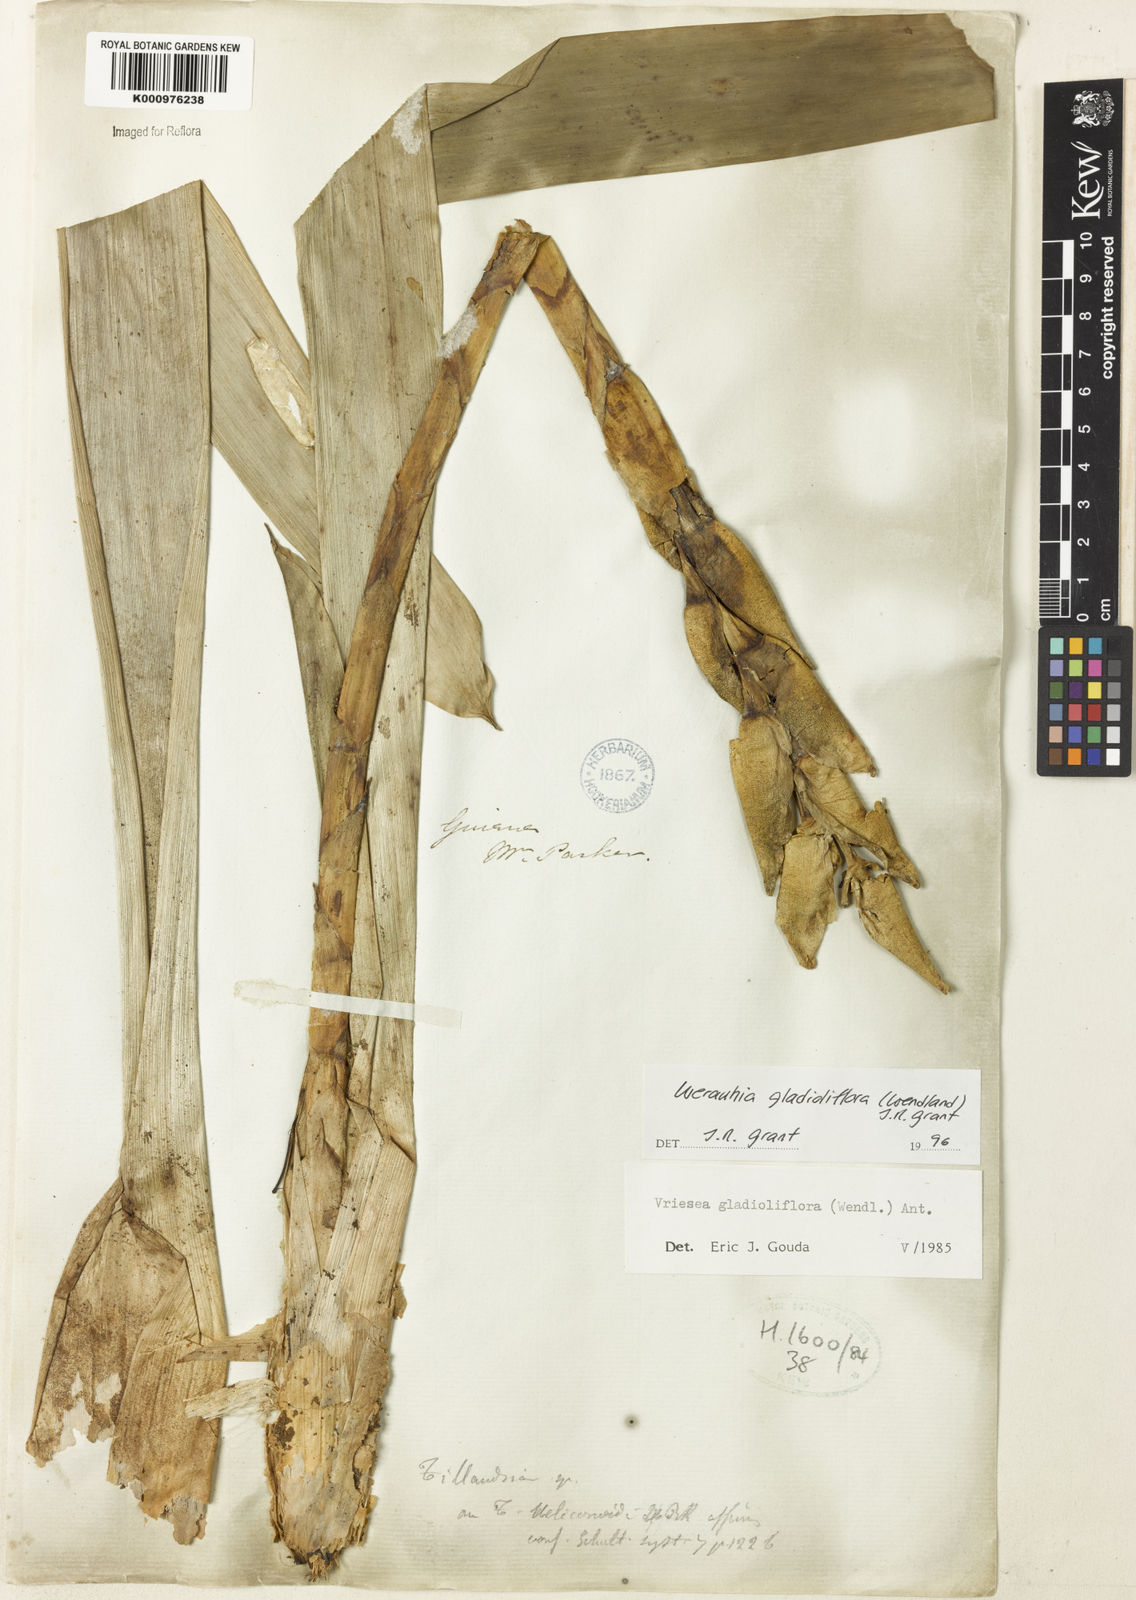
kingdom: Plantae
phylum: Tracheophyta
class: Liliopsida
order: Poales
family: Bromeliaceae
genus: Werauhia
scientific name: Werauhia gladioliflora
